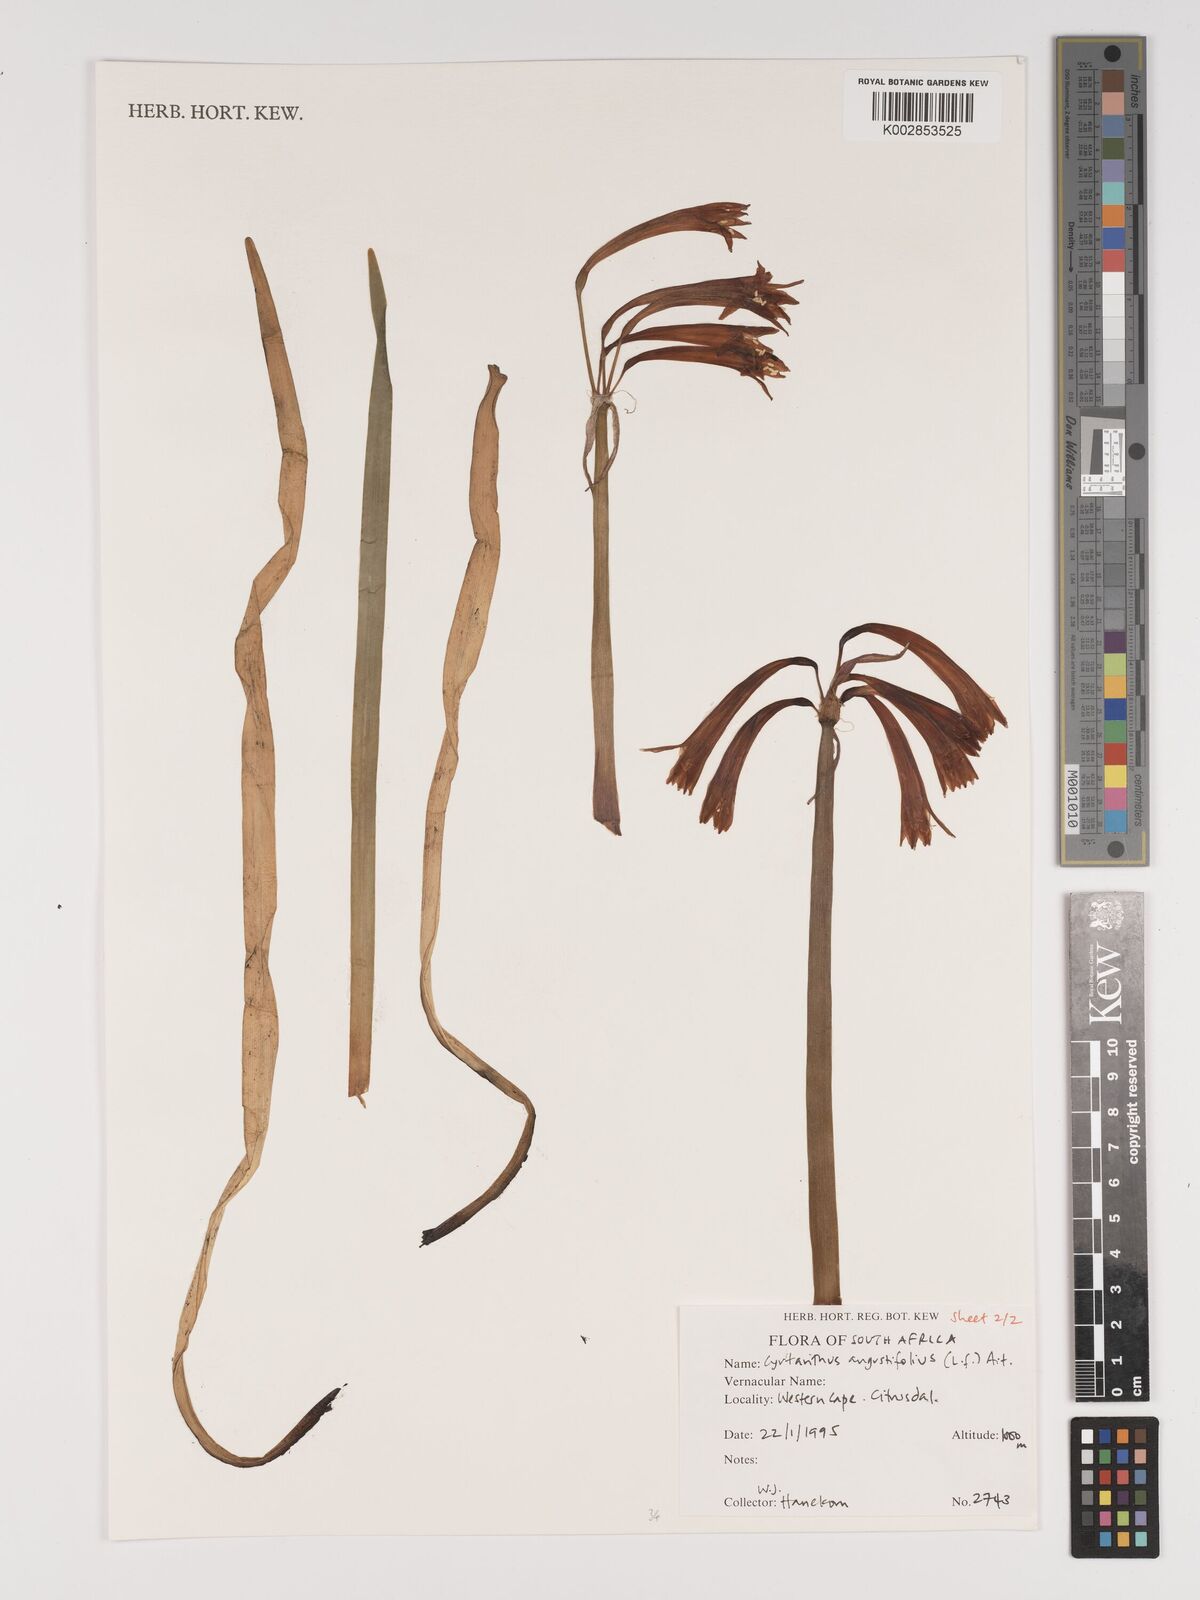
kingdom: Plantae
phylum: Tracheophyta
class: Liliopsida
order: Asparagales
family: Amaryllidaceae
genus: Cyrtanthus
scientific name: Cyrtanthus angustifolius
